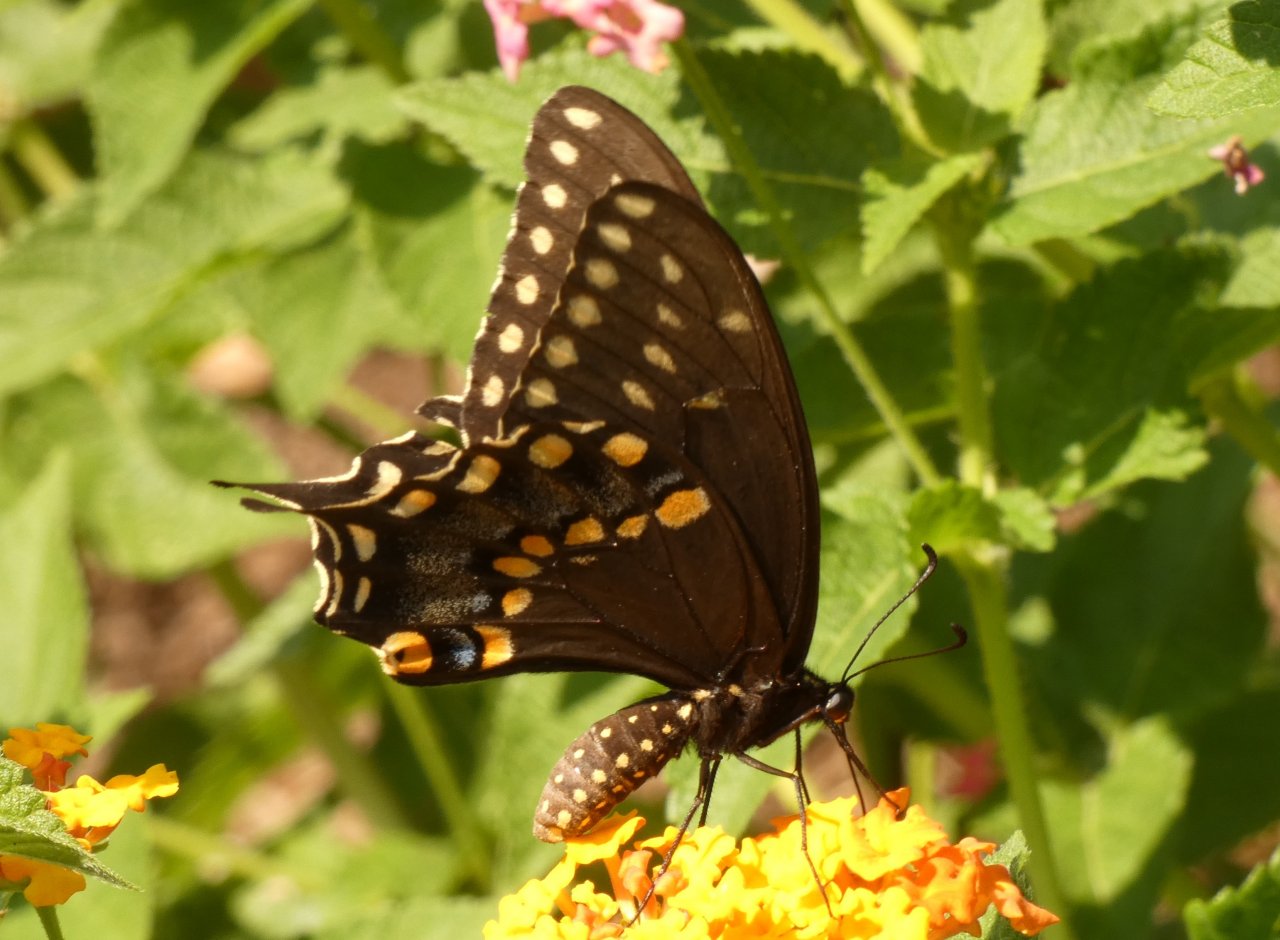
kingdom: Animalia
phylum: Arthropoda
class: Insecta
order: Lepidoptera
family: Papilionidae
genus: Papilio
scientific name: Papilio polyxenes
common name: Black Swallowtail
